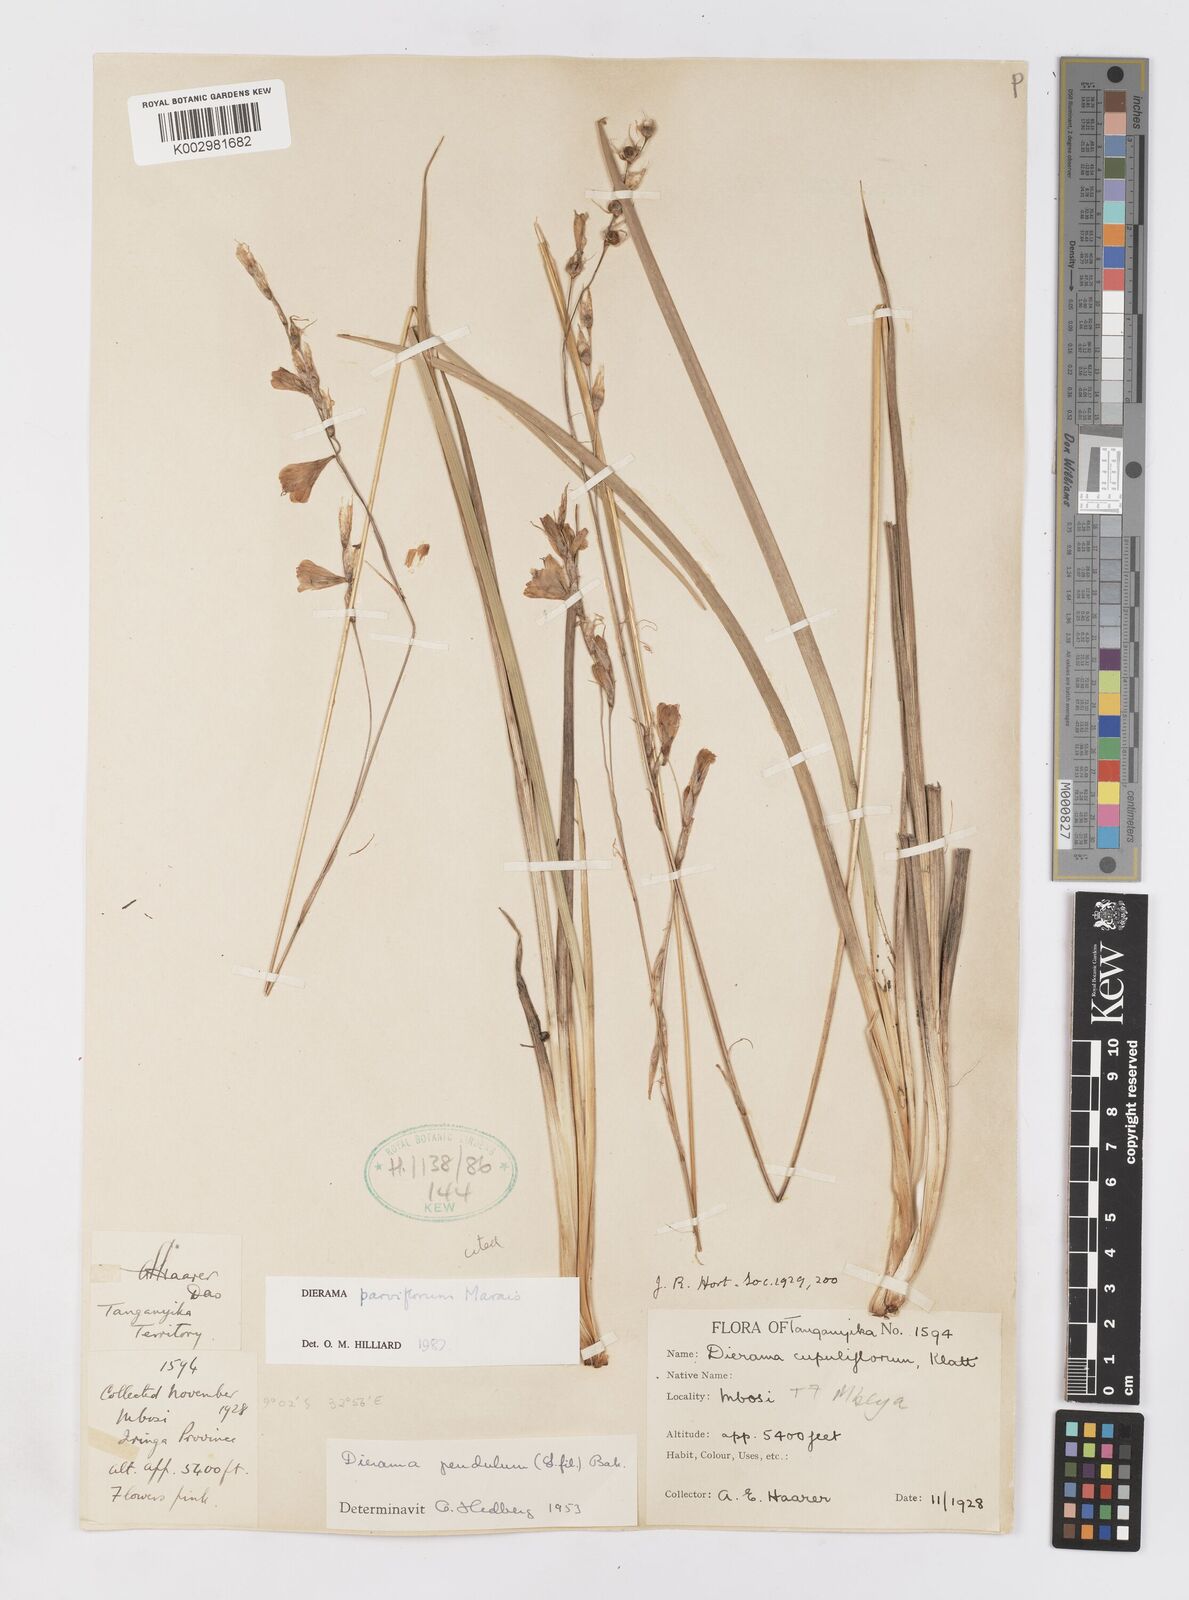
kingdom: Plantae
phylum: Tracheophyta
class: Liliopsida
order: Asparagales
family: Iridaceae
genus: Dierama
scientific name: Dierama parviflorum
